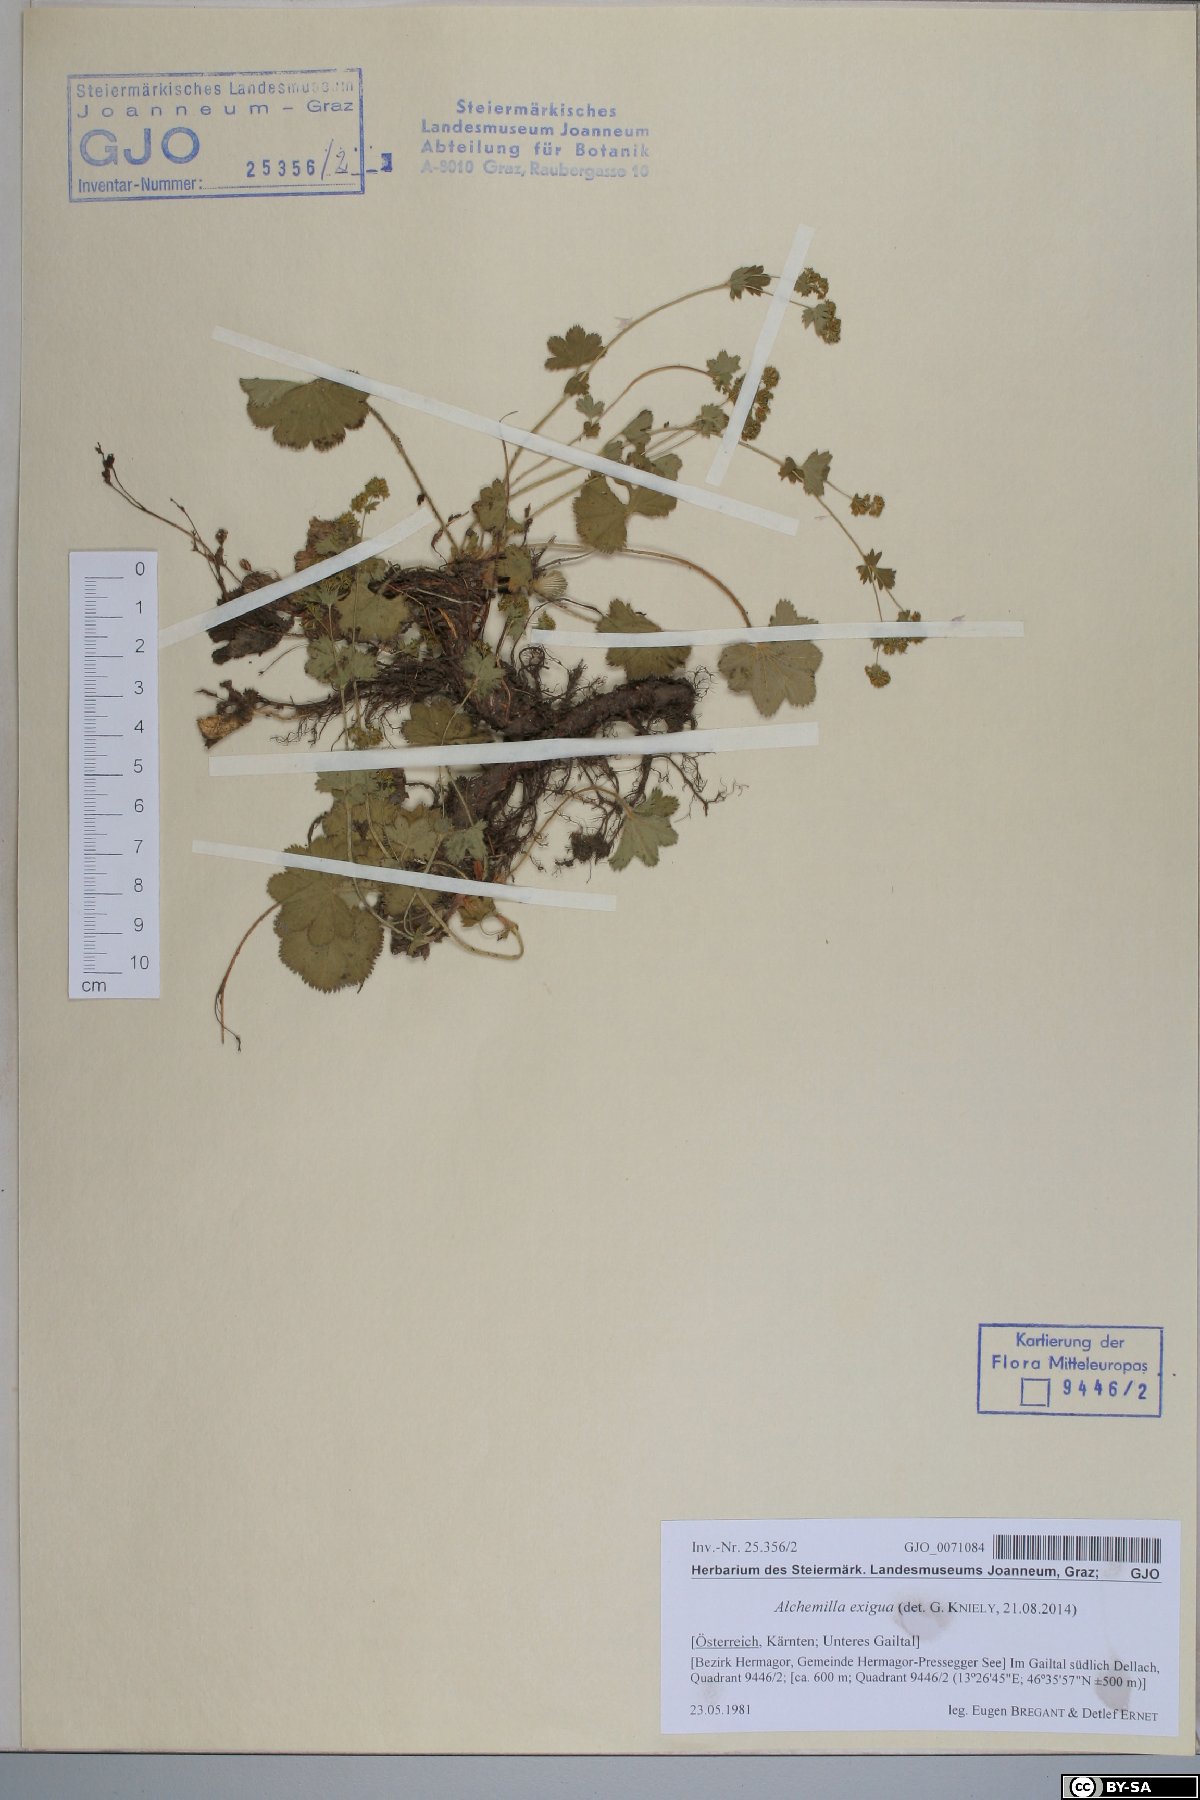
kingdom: Plantae
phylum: Tracheophyta
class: Magnoliopsida
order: Rosales
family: Rosaceae
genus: Alchemilla
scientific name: Alchemilla exigua
